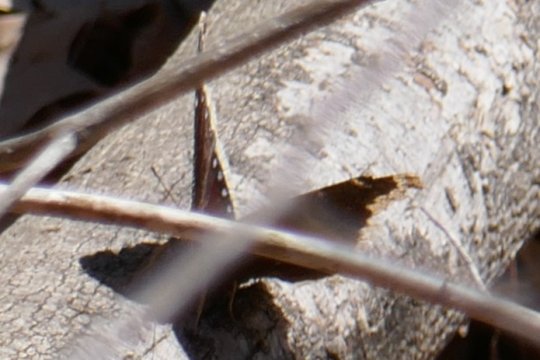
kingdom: Animalia
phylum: Arthropoda
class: Insecta
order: Lepidoptera
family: Nymphalidae
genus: Nymphalis
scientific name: Nymphalis antiopa
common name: Mourning Cloak
